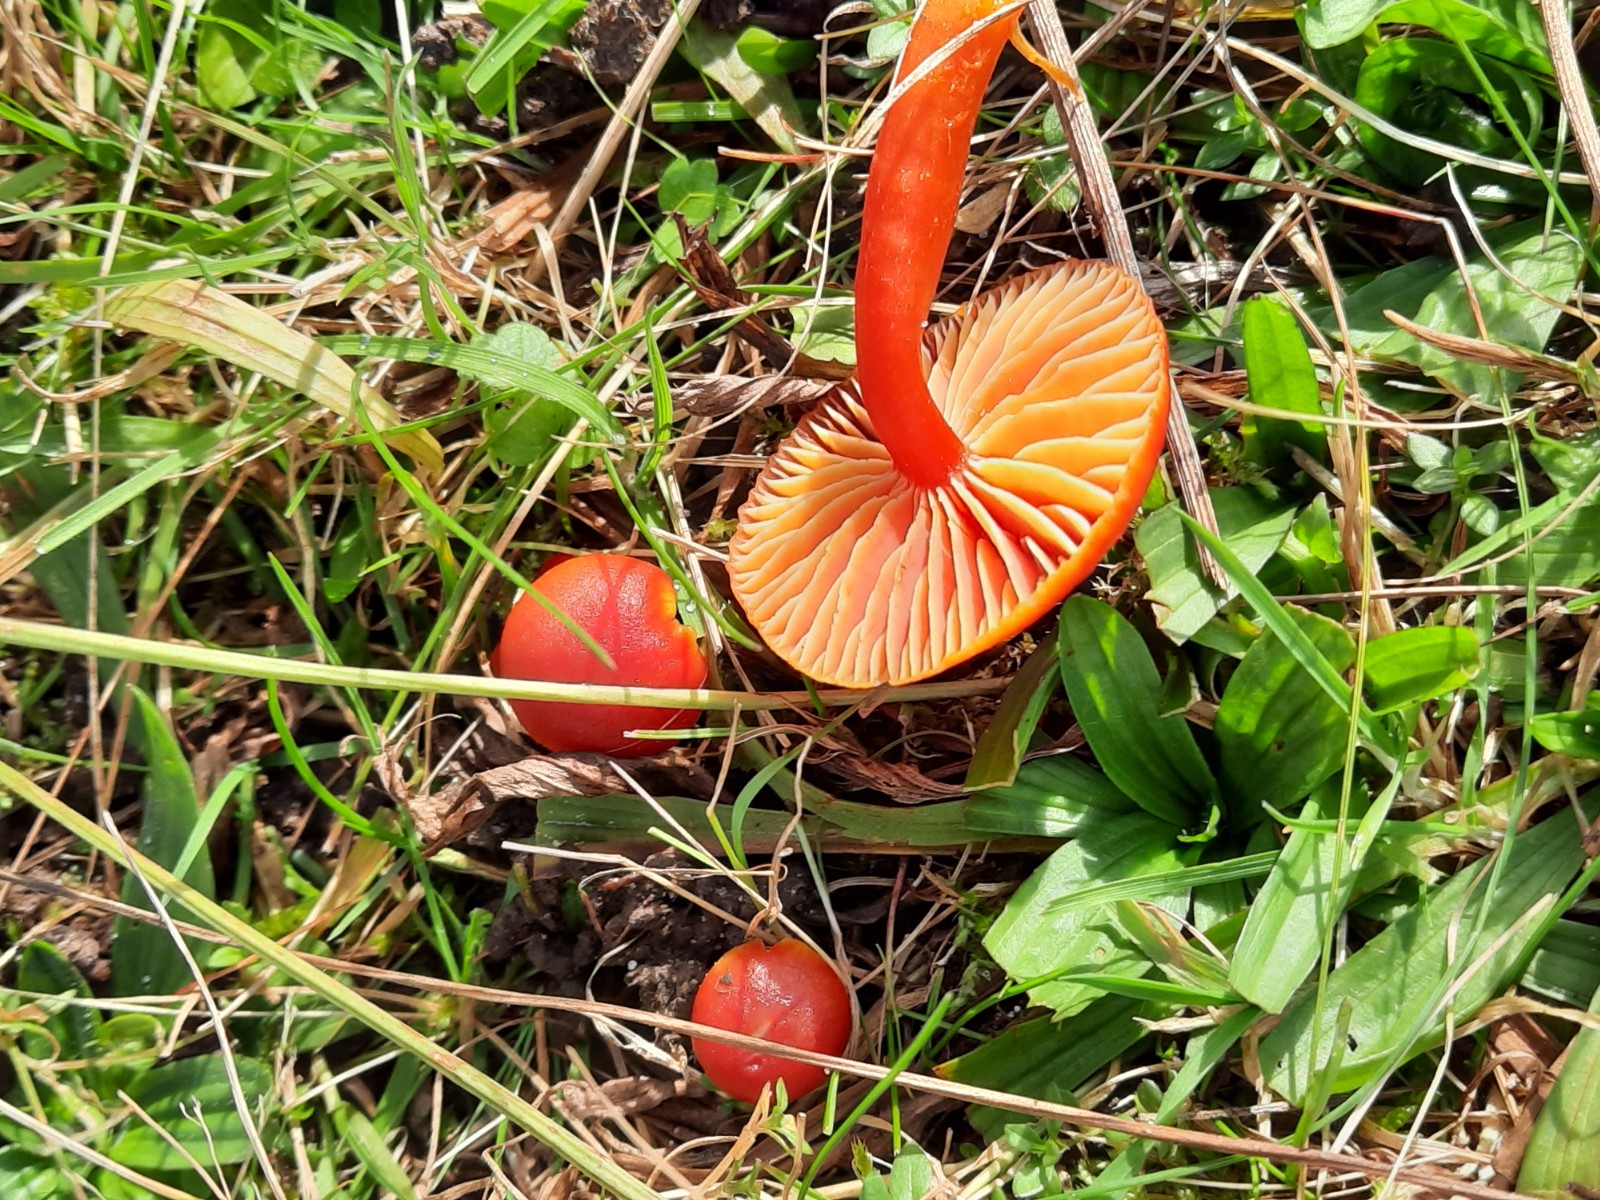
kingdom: Fungi
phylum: Basidiomycota
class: Agaricomycetes
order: Agaricales
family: Hygrophoraceae
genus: Hygrocybe
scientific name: Hygrocybe miniata
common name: mønje-vokshat
